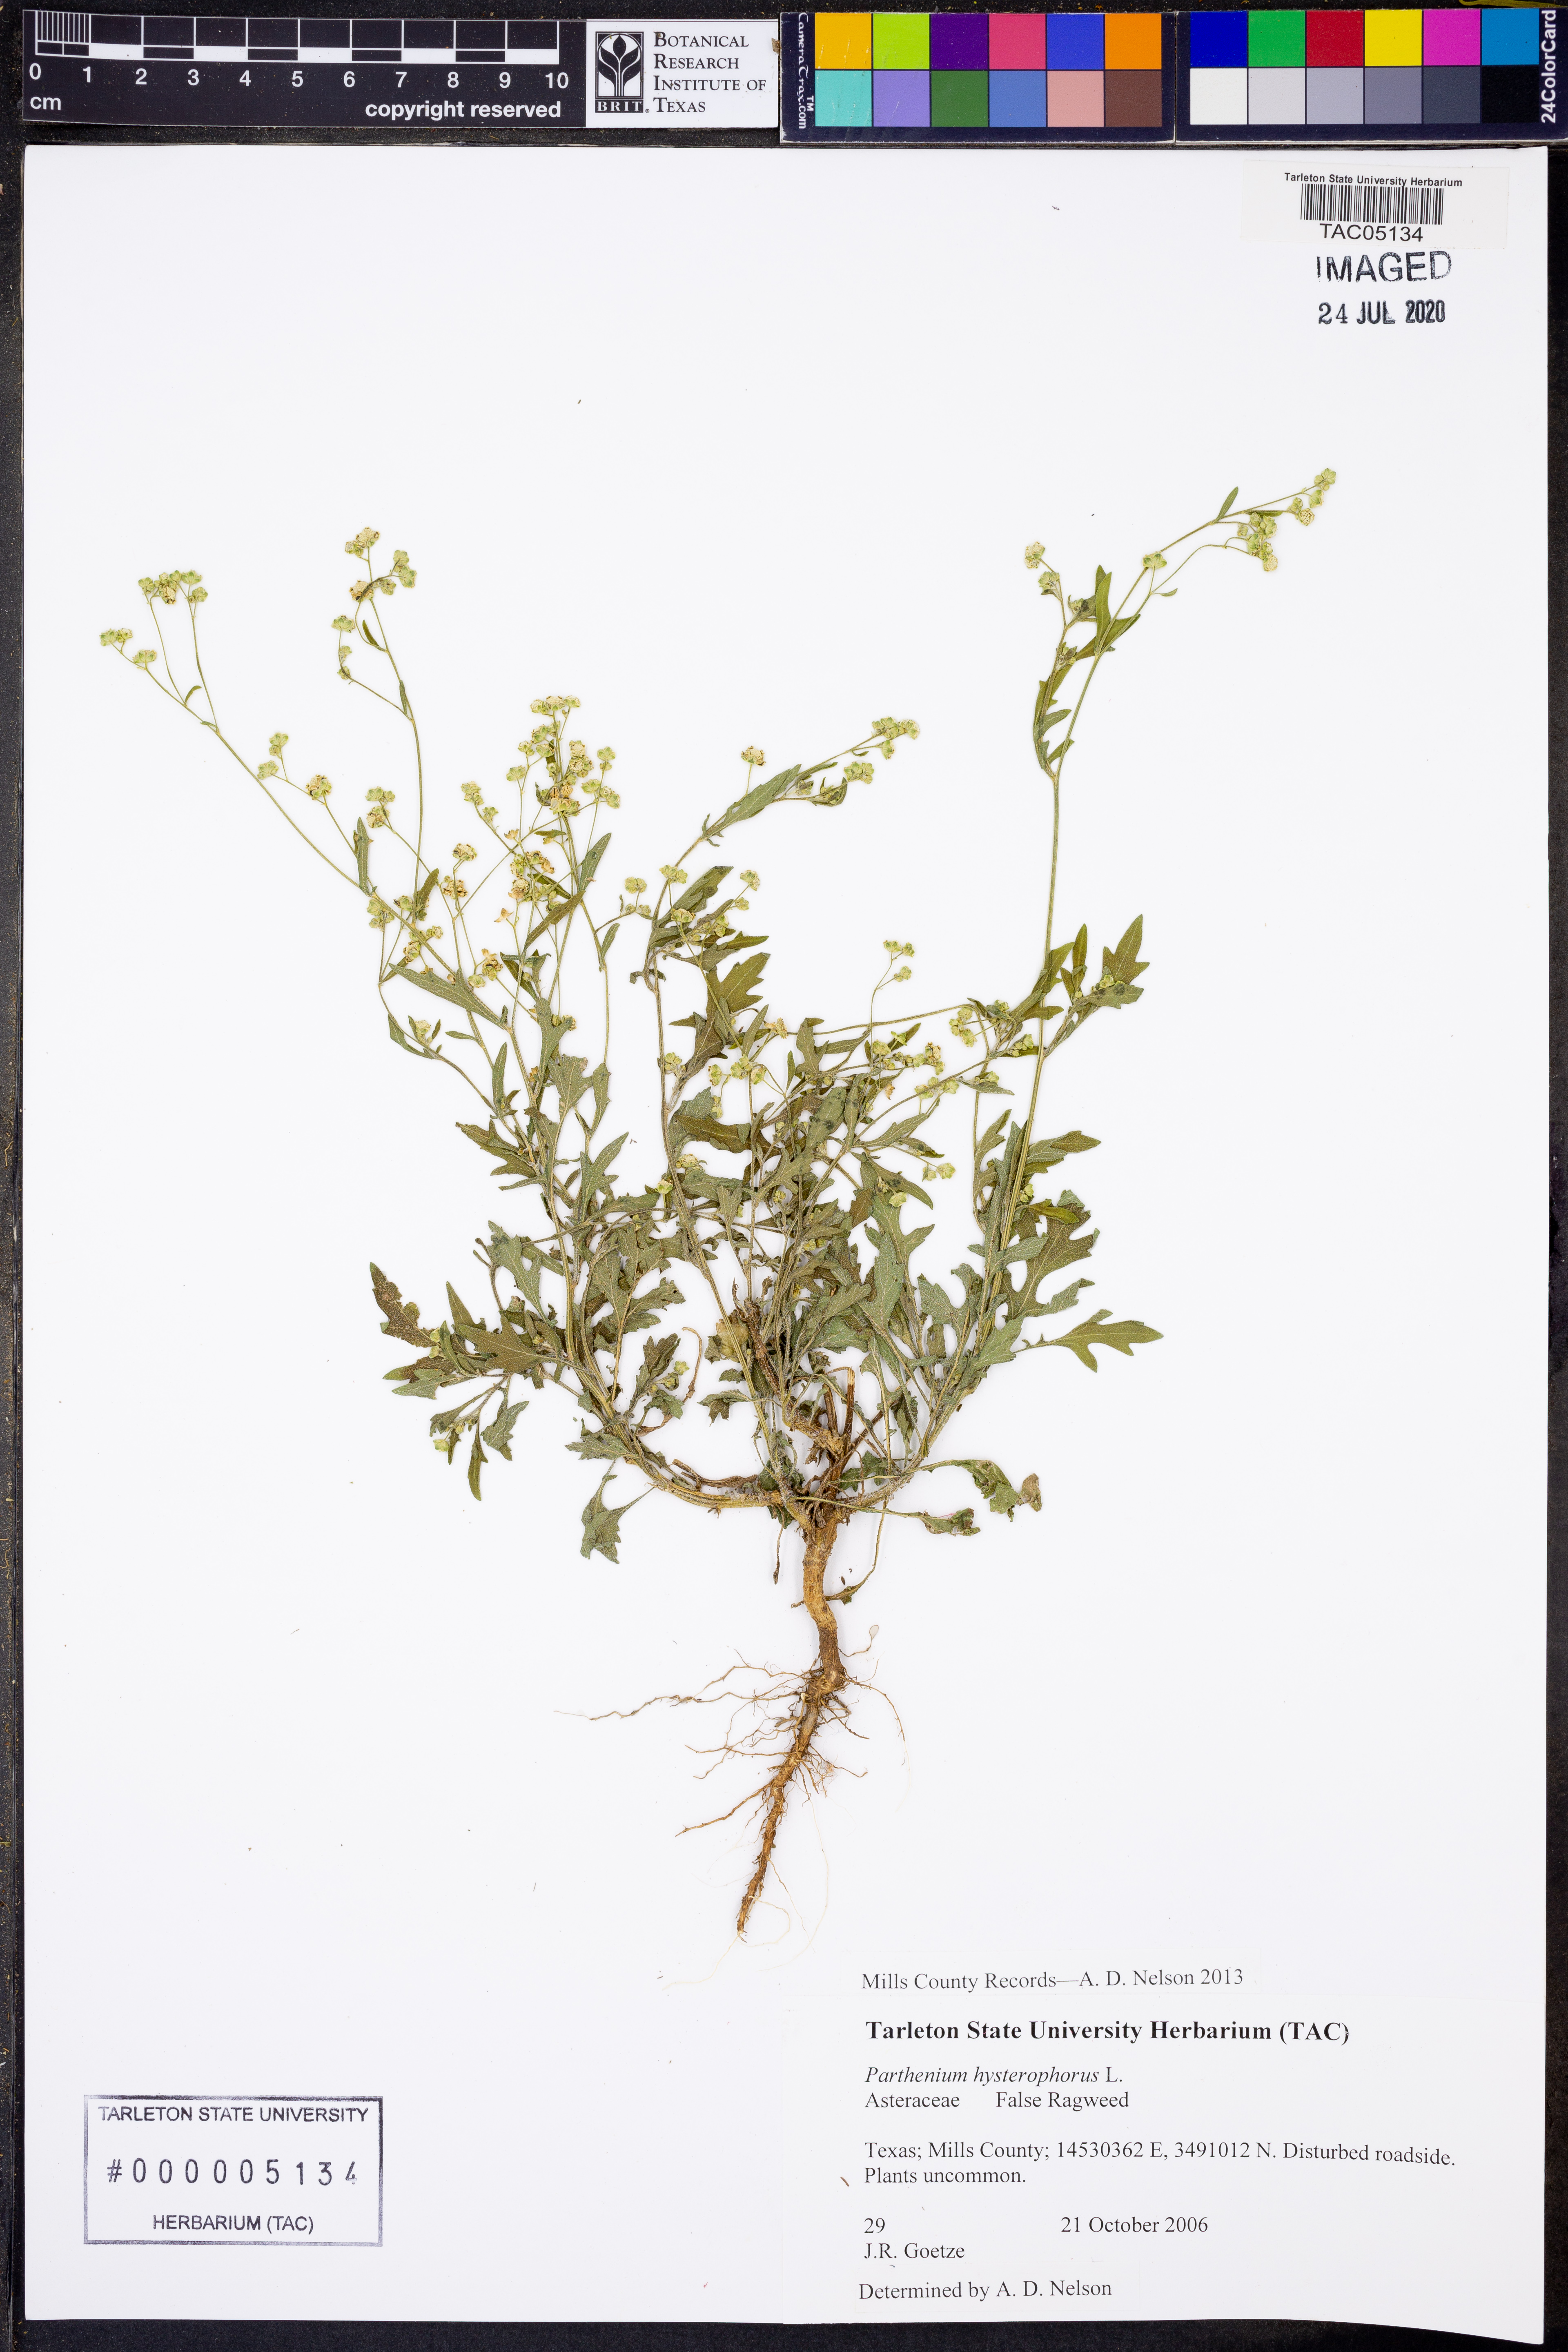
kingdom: Plantae
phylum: Tracheophyta
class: Magnoliopsida
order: Asterales
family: Asteraceae
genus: Parthenium
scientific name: Parthenium hysterophorus
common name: Santa maria feverfew
